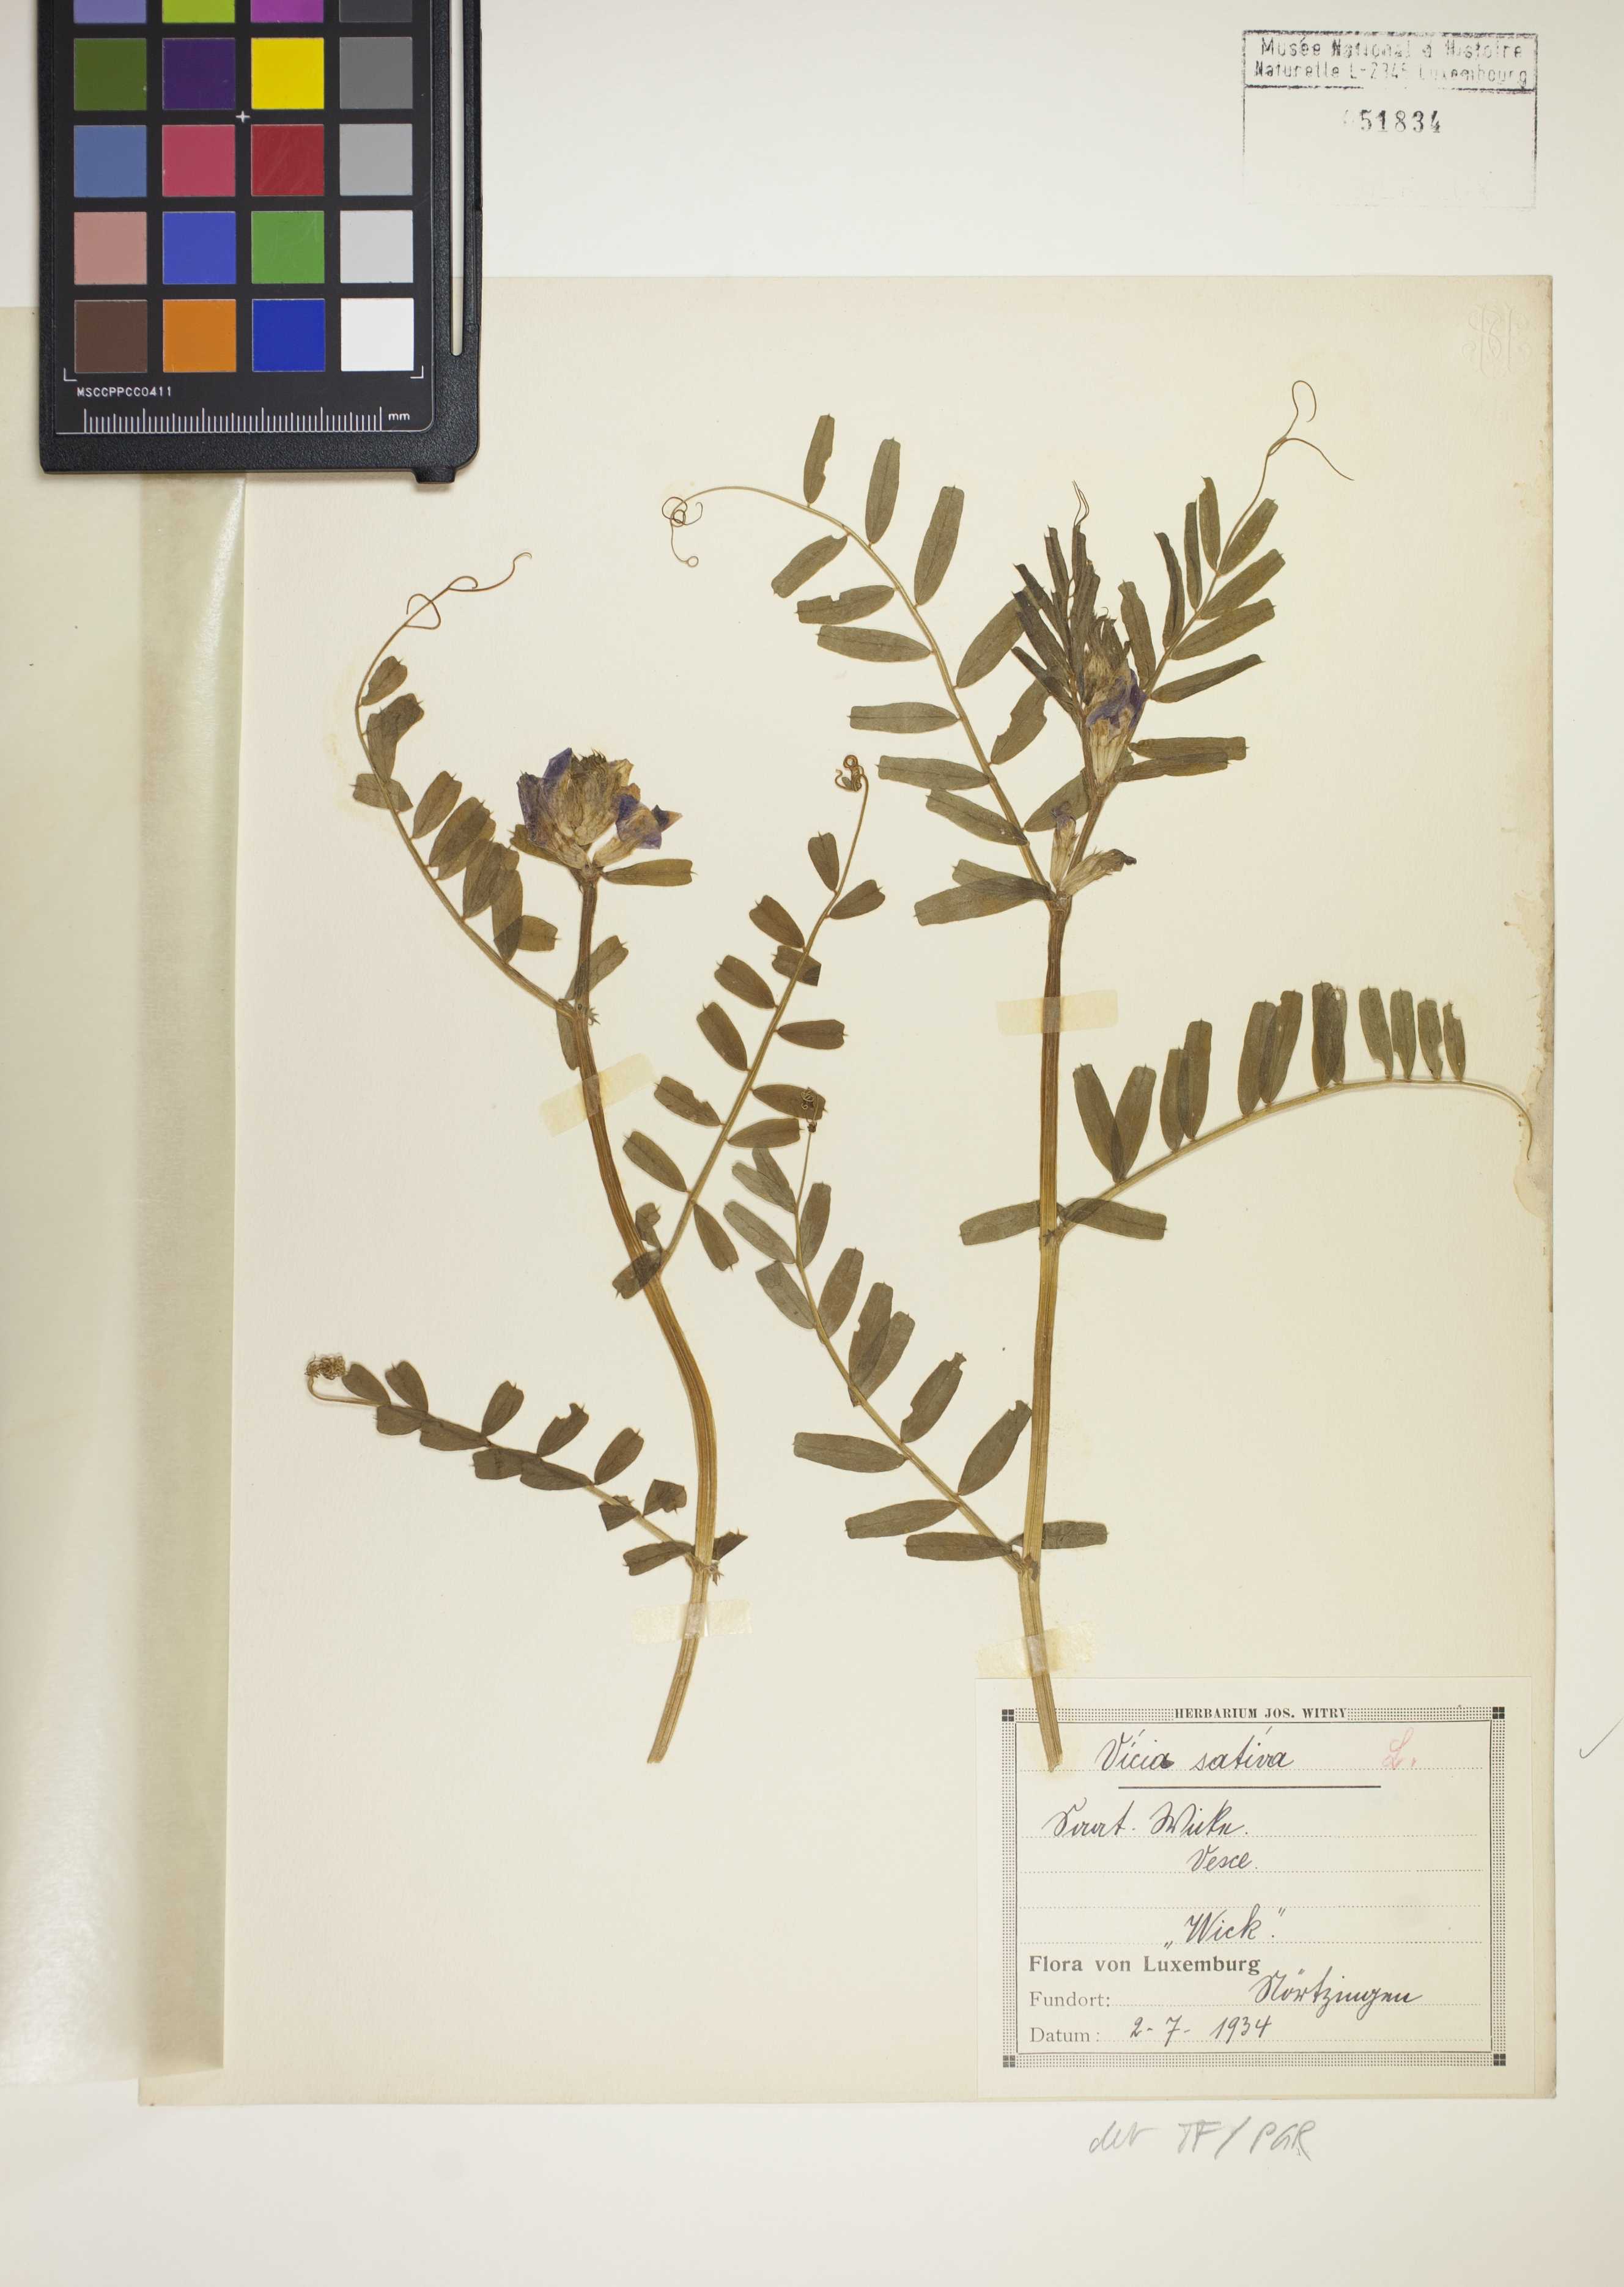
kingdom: Plantae
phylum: Tracheophyta
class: Magnoliopsida
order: Fabales
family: Fabaceae
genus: Vicia
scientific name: Vicia sativa
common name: Garden vetch
